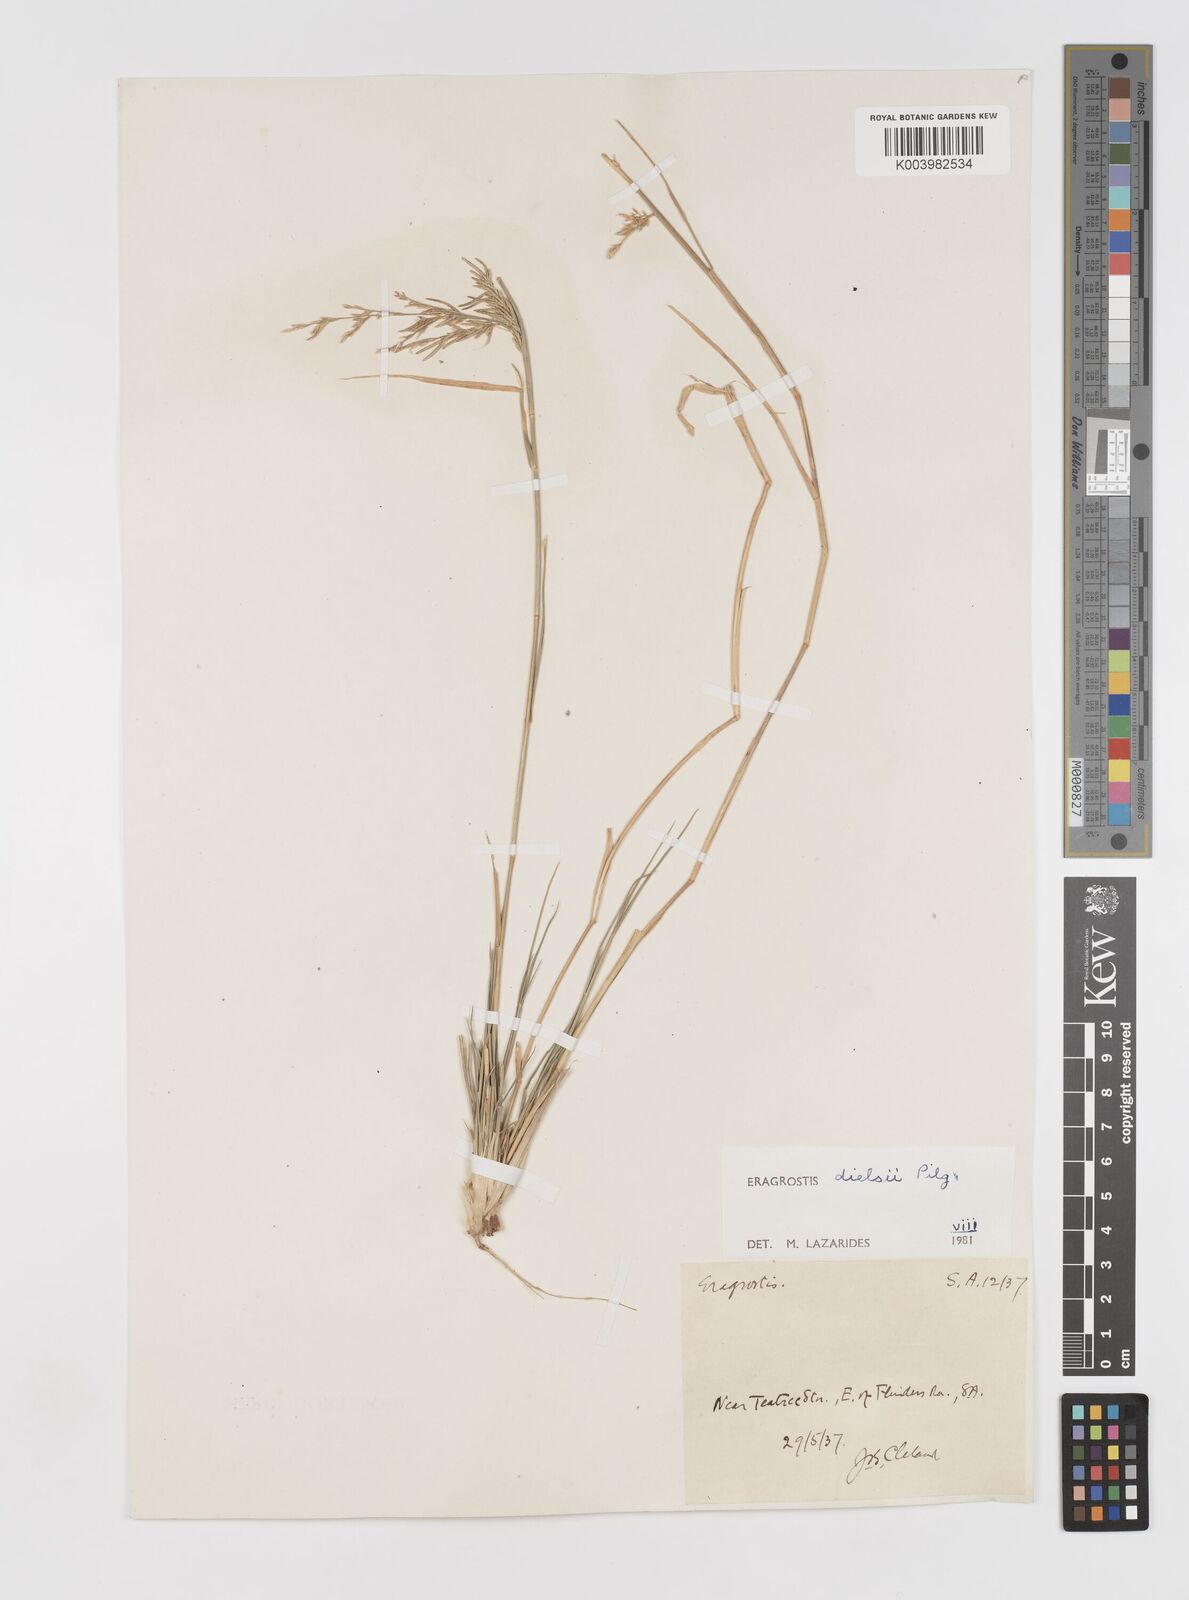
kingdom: Plantae
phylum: Tracheophyta
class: Liliopsida
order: Poales
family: Poaceae
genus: Eragrostis
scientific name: Eragrostis dielsii
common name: Lovegrass
